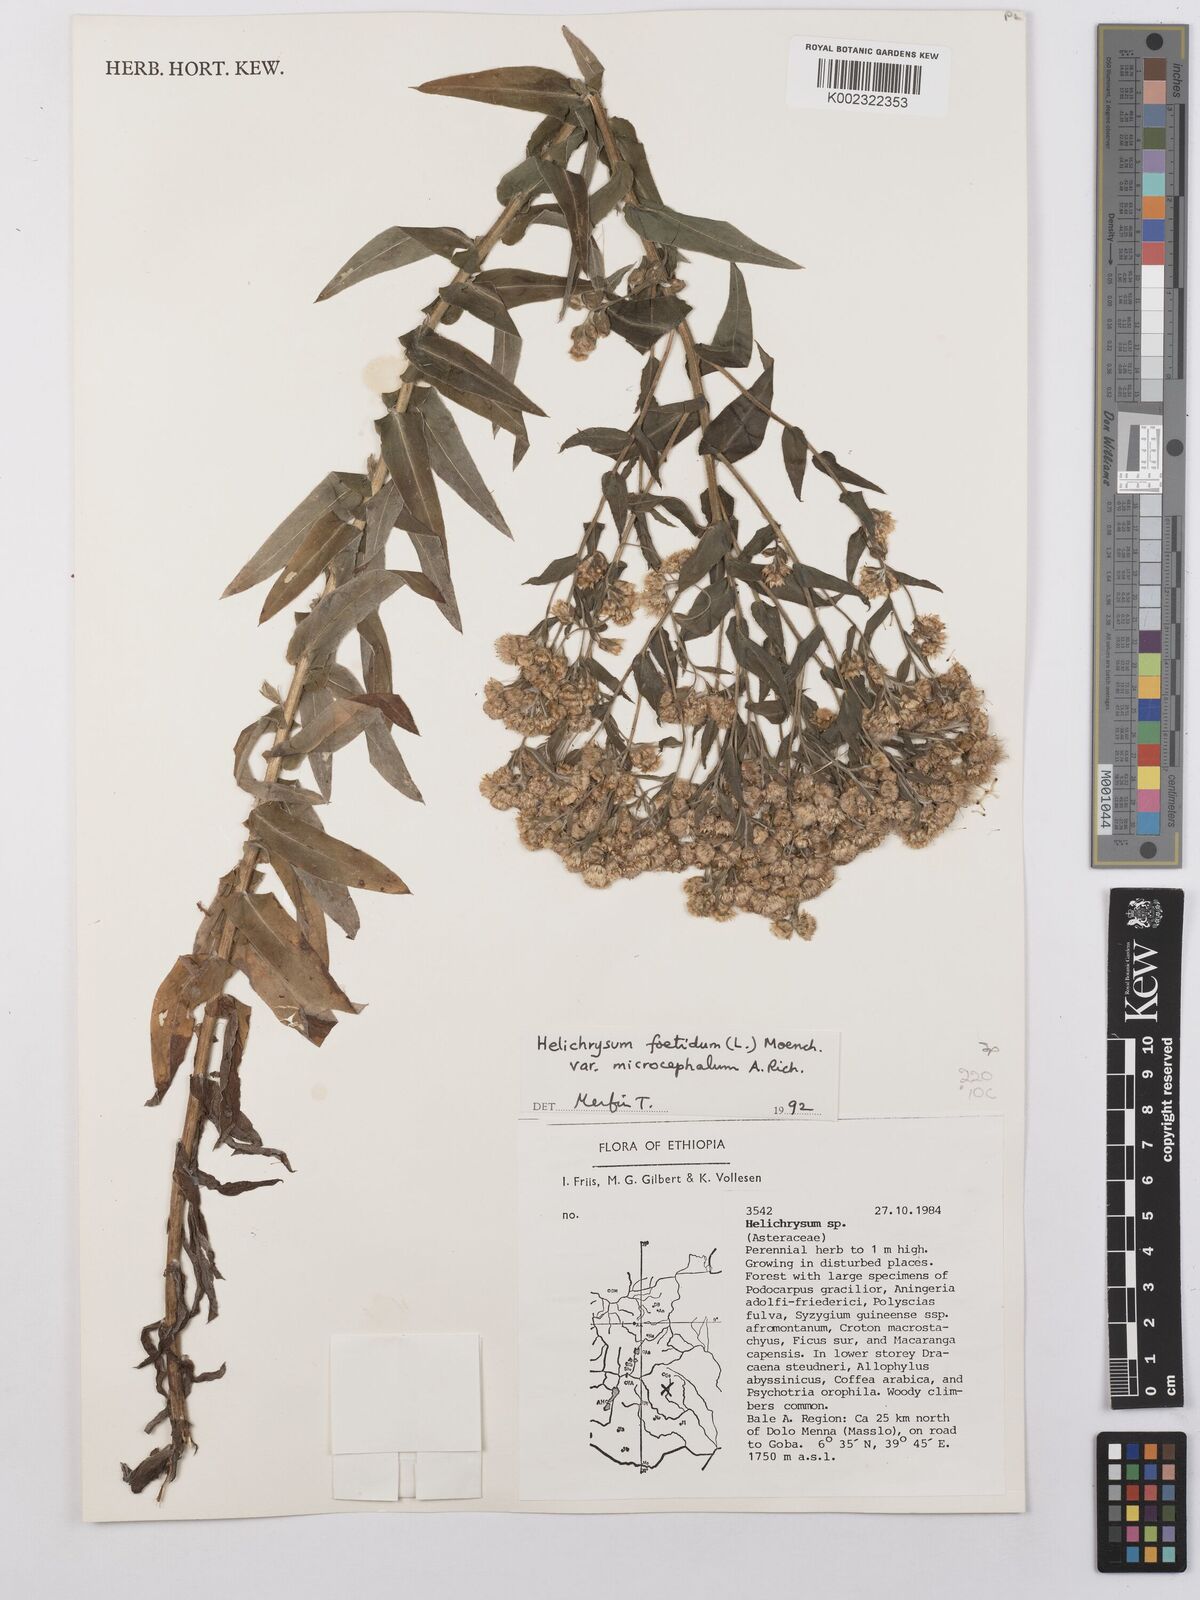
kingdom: Plantae
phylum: Tracheophyta
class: Magnoliopsida
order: Asterales
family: Asteraceae
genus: Helichrysum
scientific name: Helichrysum foetidum
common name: Stinking everlasting
